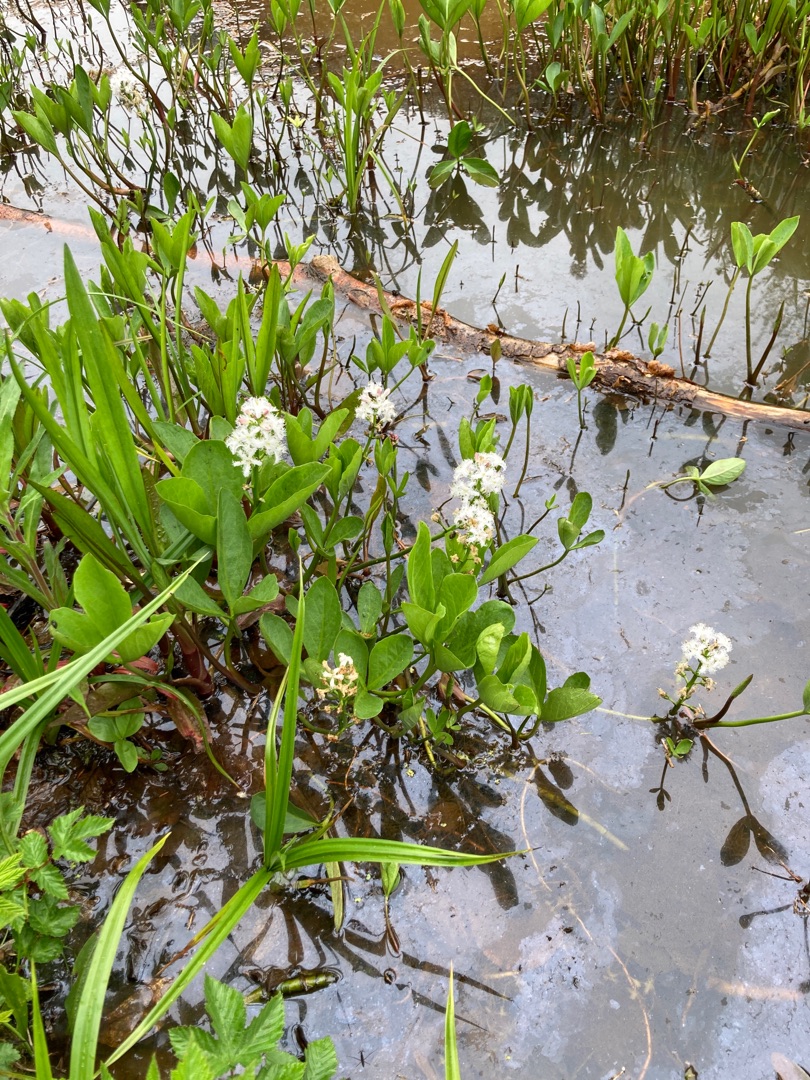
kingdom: Plantae
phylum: Tracheophyta
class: Magnoliopsida
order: Asterales
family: Menyanthaceae
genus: Menyanthes
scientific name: Menyanthes trifoliata
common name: Bukkeblad
